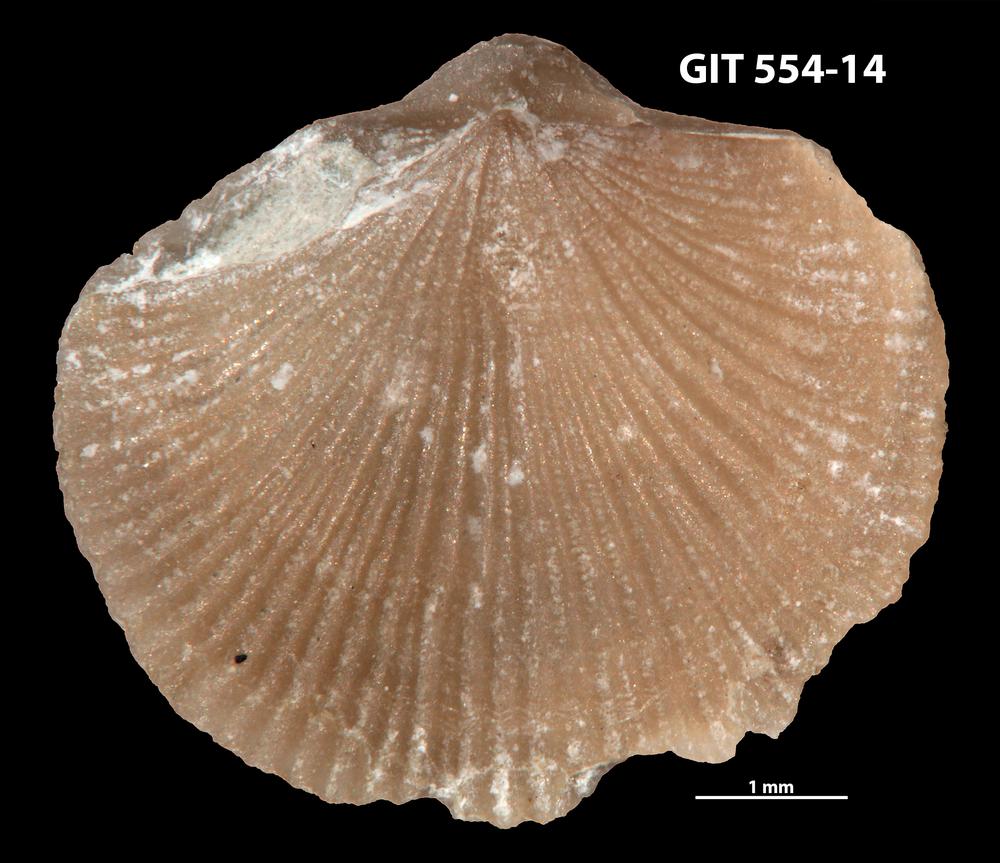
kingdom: Animalia
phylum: Brachiopoda
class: Rhynchonellata
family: Dalmanellidae
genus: Onniella
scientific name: Onniella trigona
